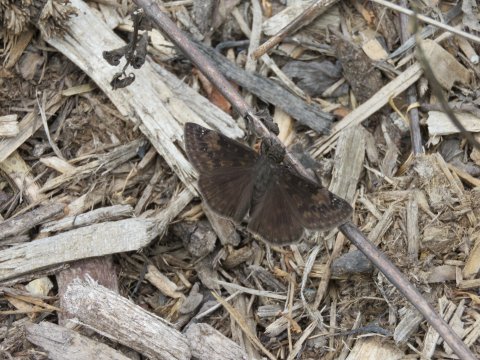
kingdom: Animalia
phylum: Arthropoda
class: Insecta
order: Lepidoptera
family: Hesperiidae
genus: Gesta
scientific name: Gesta
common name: Wild Indigo Duskywing
